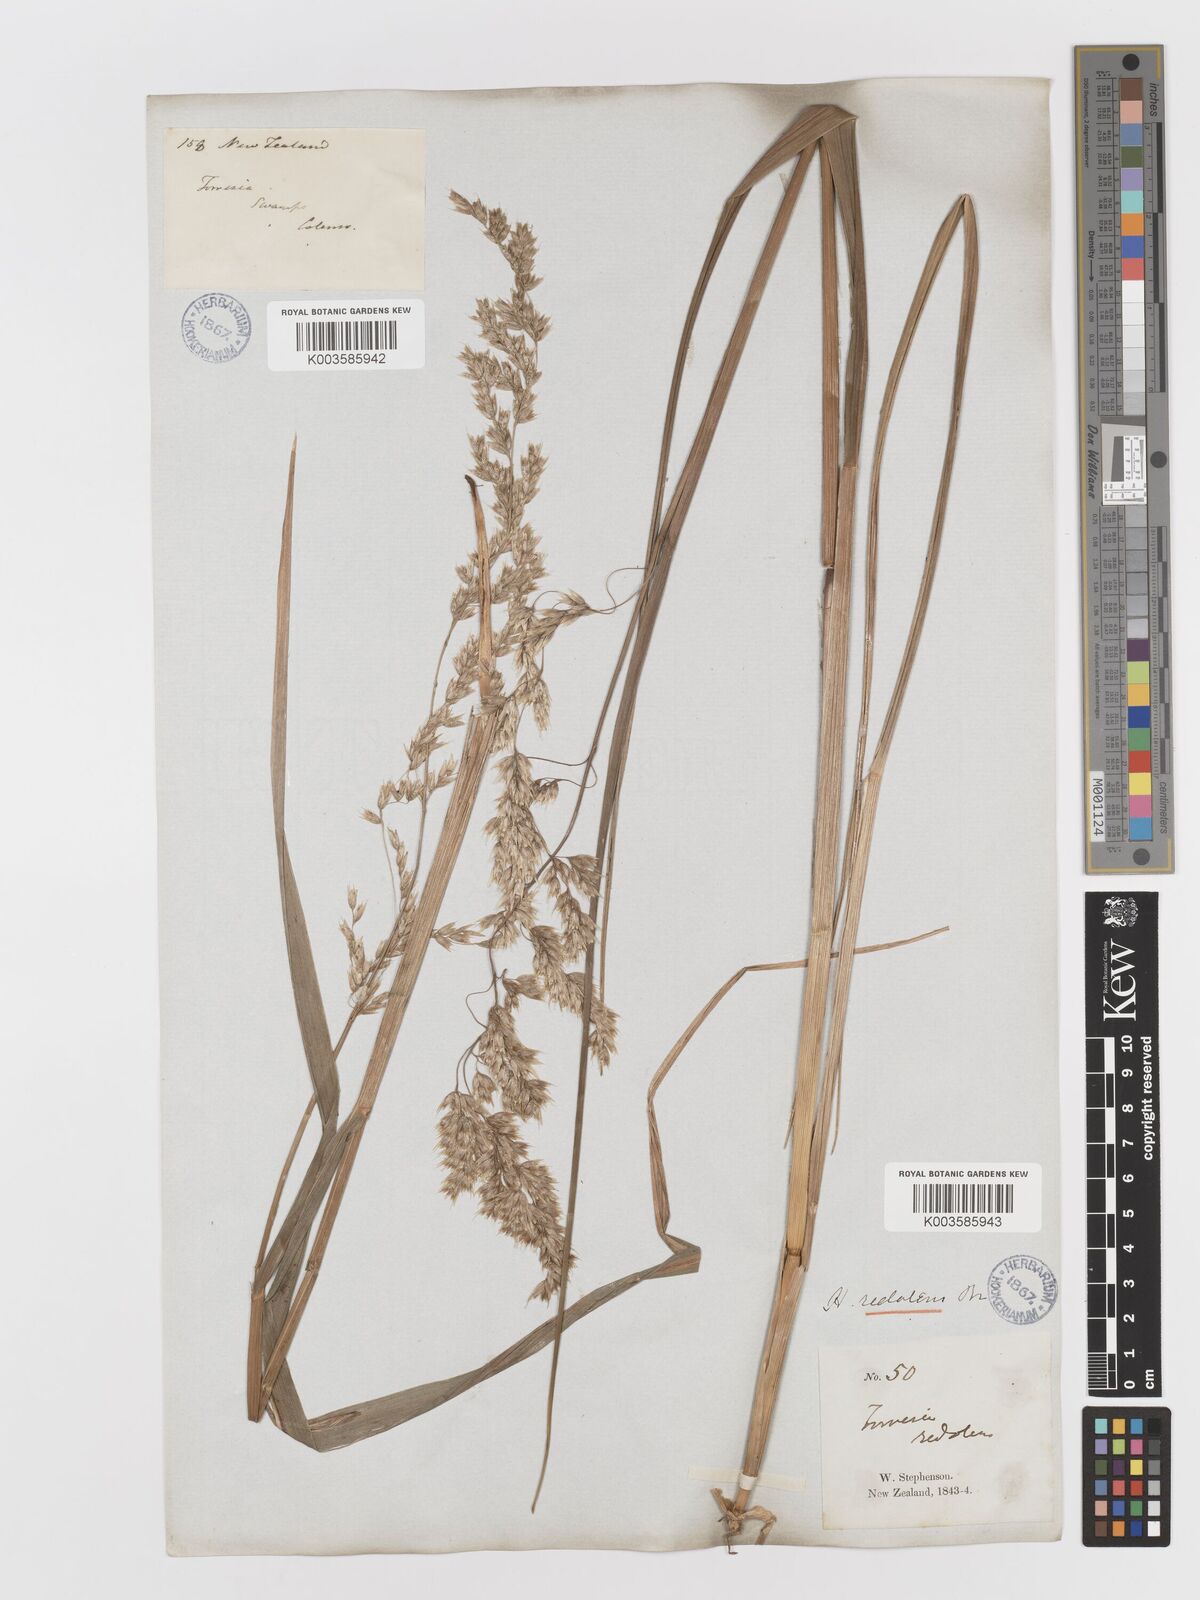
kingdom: Plantae
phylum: Tracheophyta
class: Liliopsida
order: Poales
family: Poaceae
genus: Anthoxanthum
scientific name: Anthoxanthum redolens
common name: Sweet holy grass
